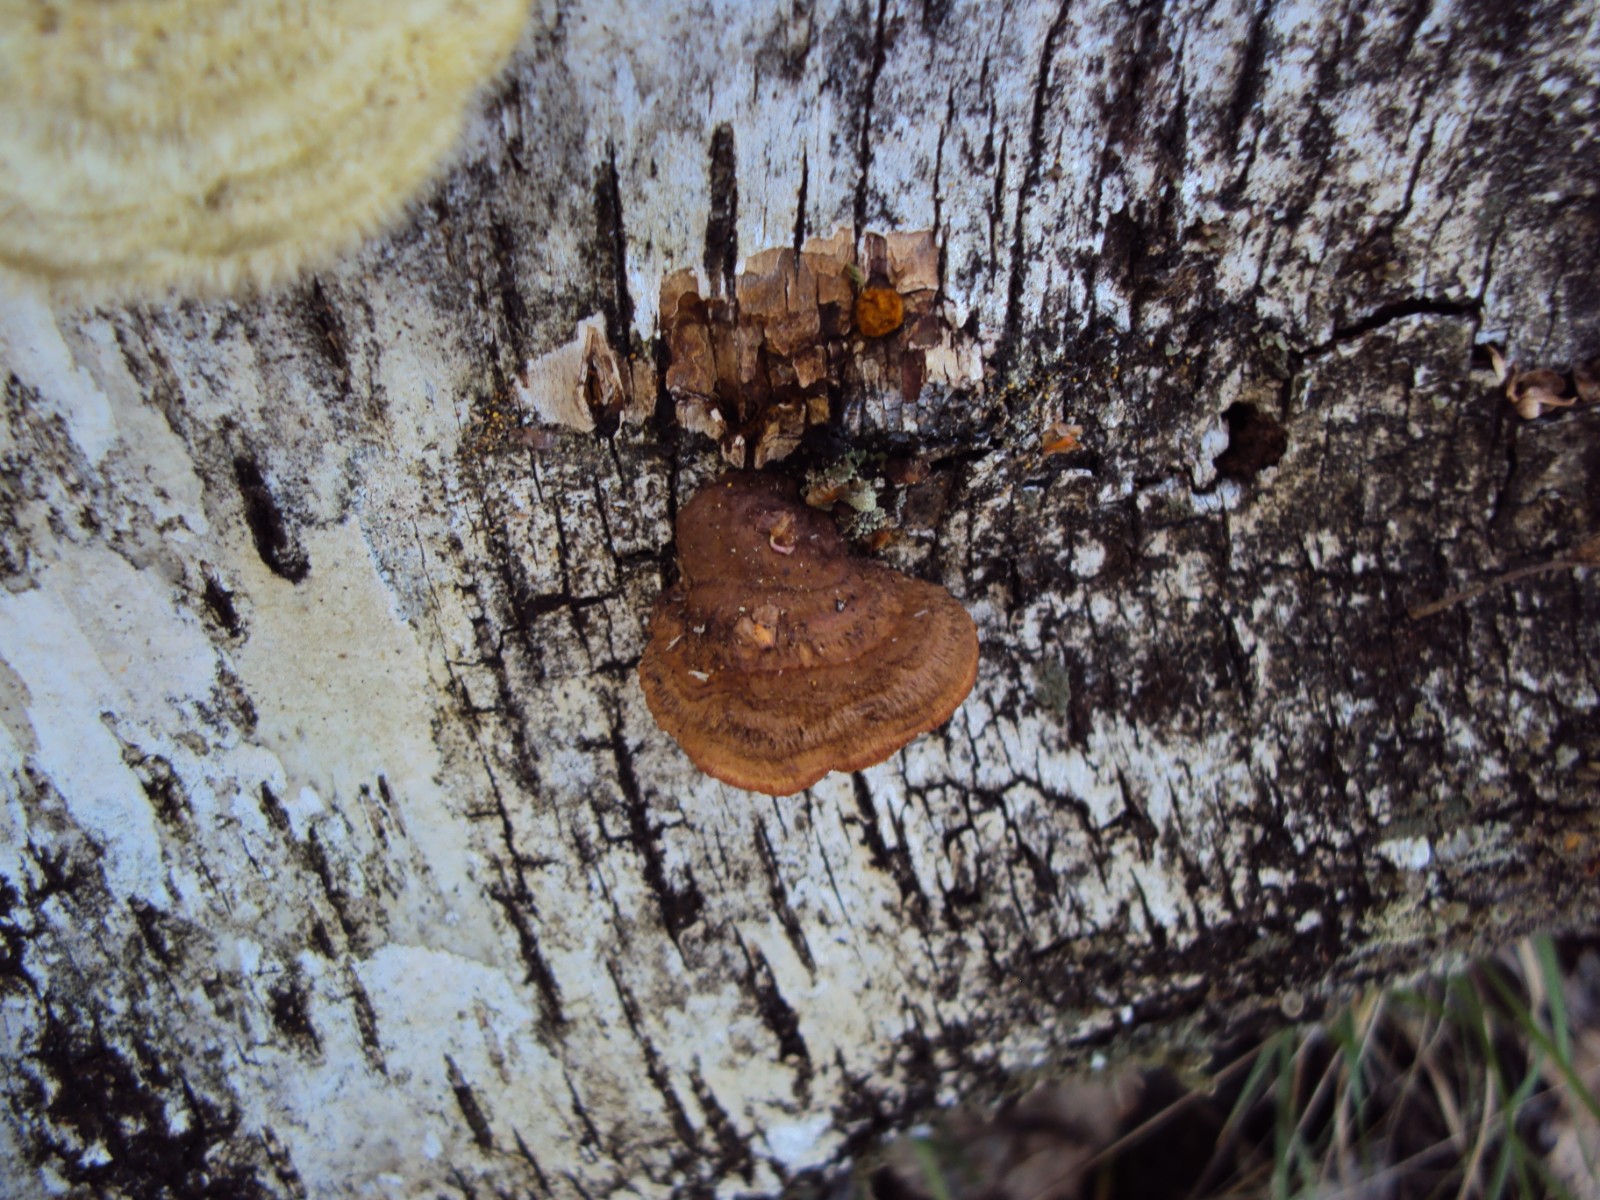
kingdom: Fungi
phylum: Basidiomycota
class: Agaricomycetes
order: Gloeophyllales
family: Gloeophyllaceae
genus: Gloeophyllum
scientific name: Gloeophyllum sepiarium
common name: fyrre-korkhat
